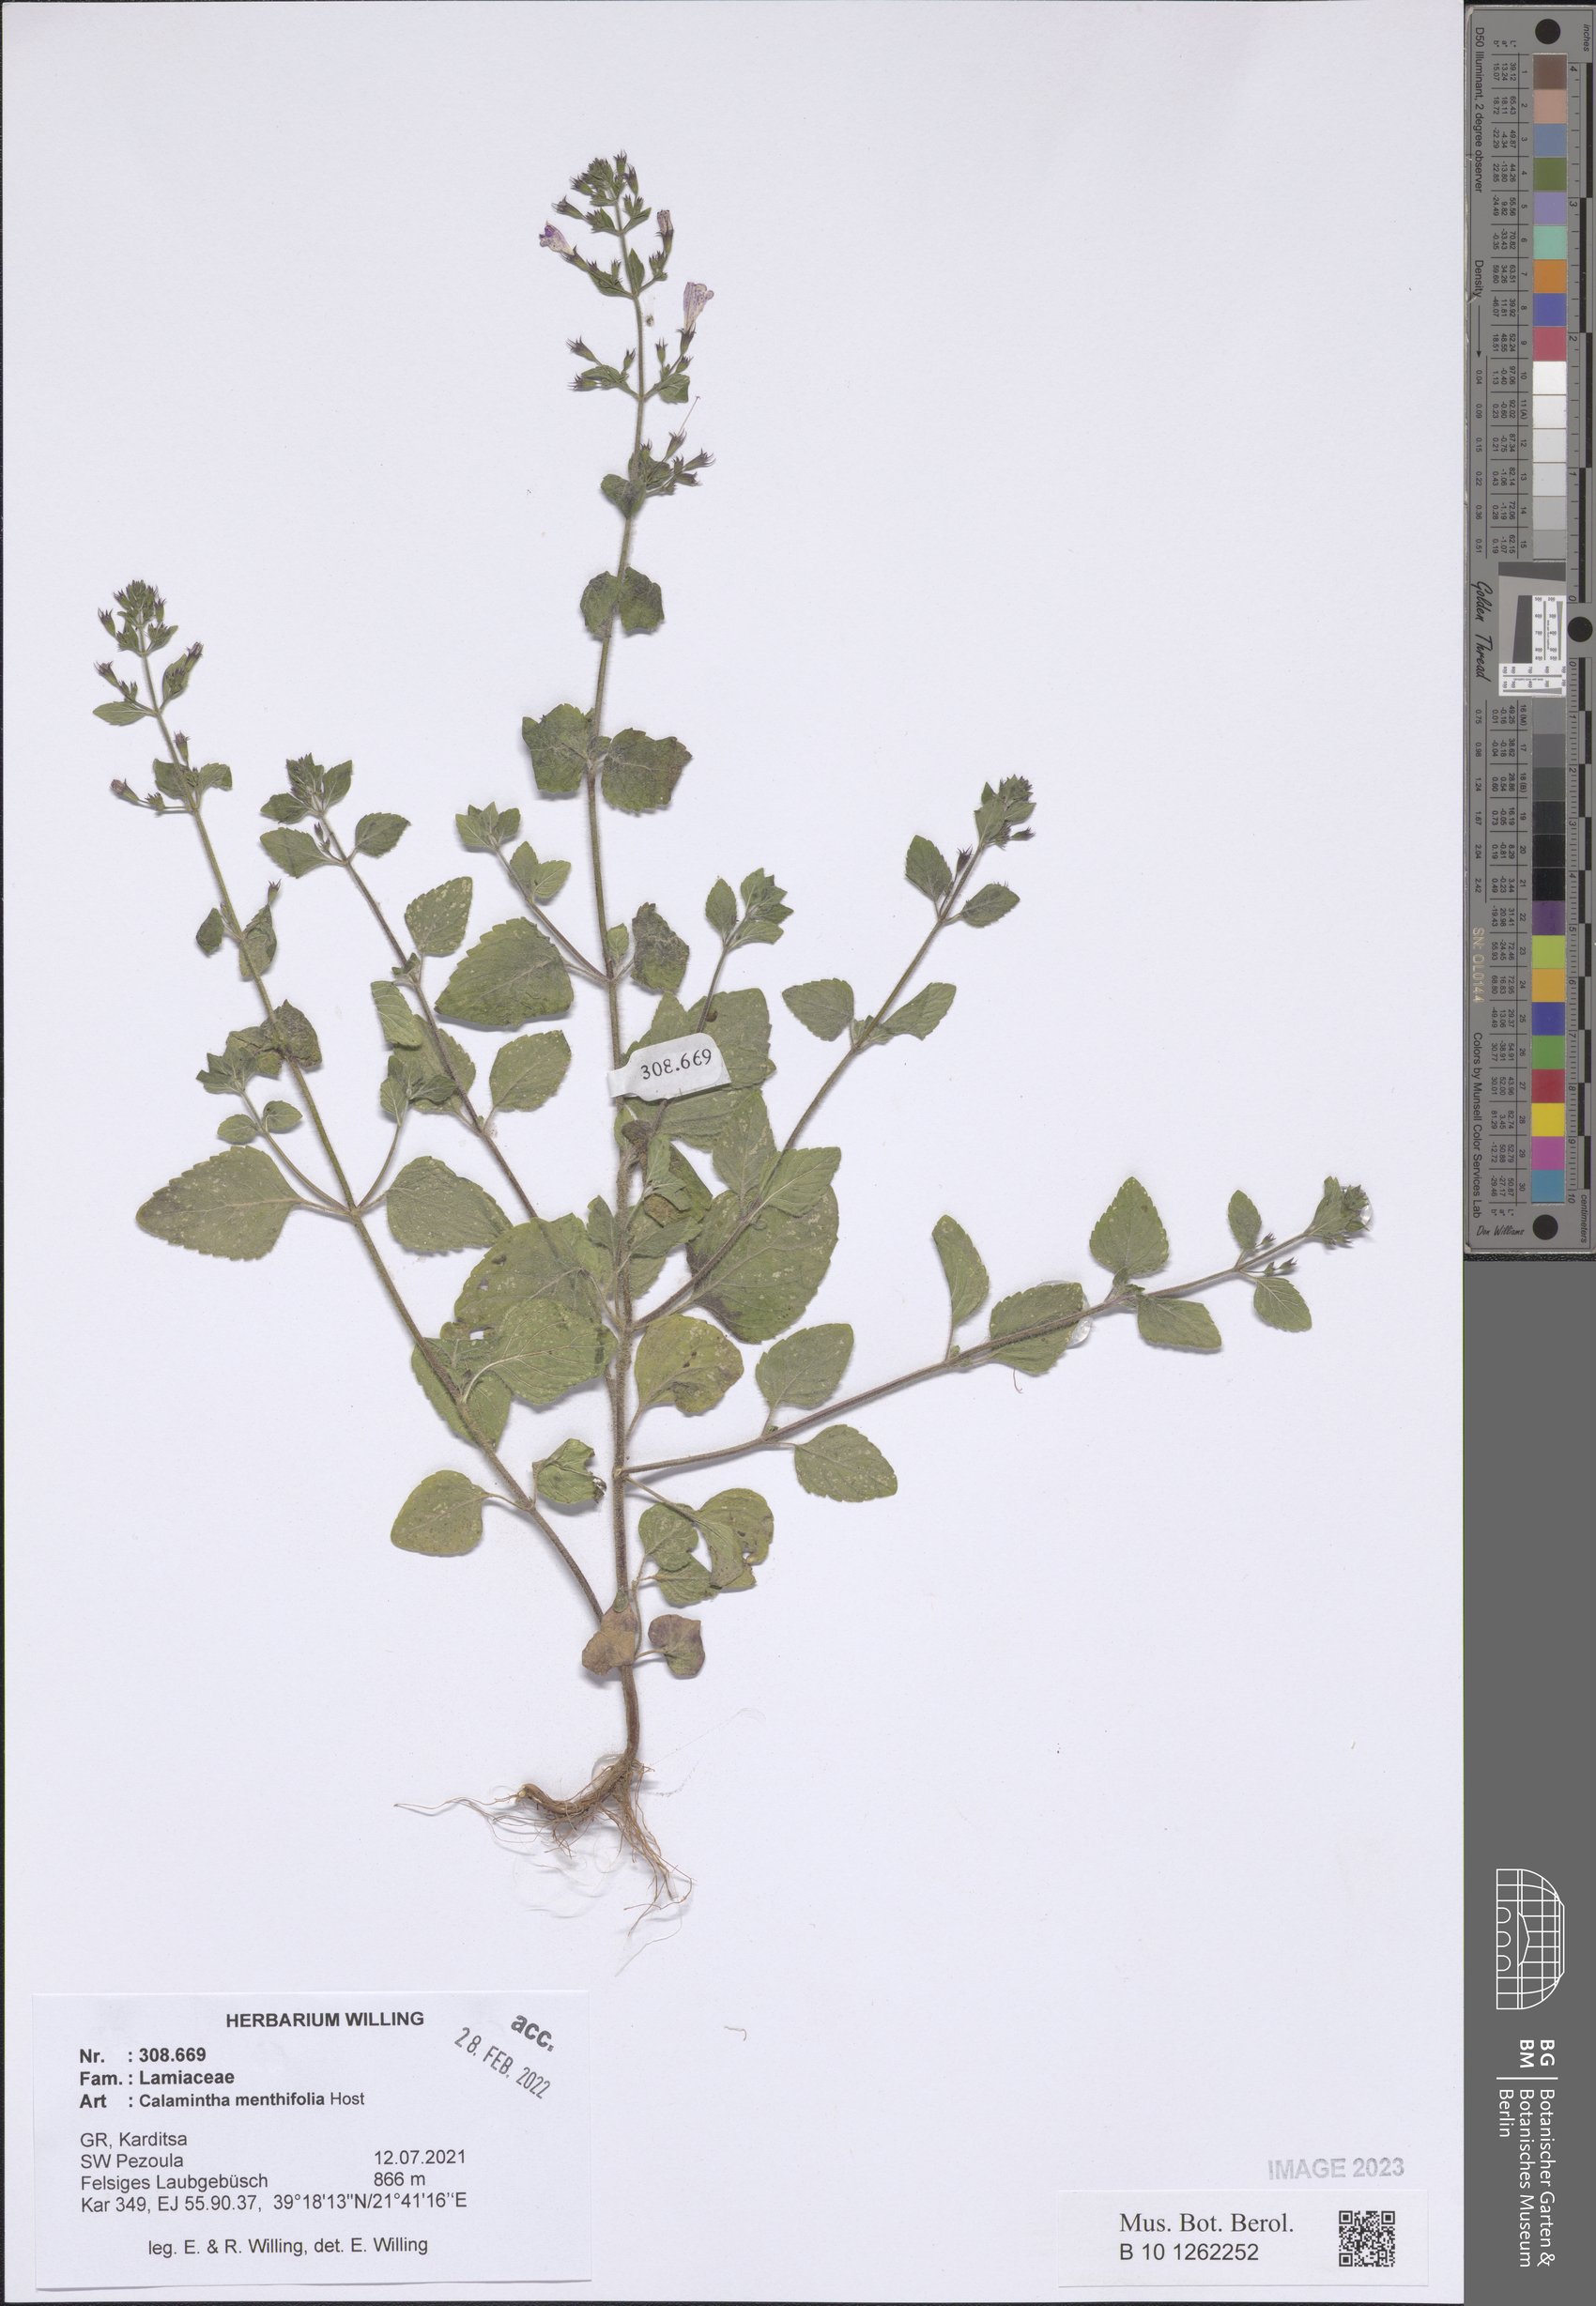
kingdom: Plantae
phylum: Tracheophyta
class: Magnoliopsida
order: Lamiales
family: Lamiaceae
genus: Clinopodium
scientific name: Clinopodium menthifolium
